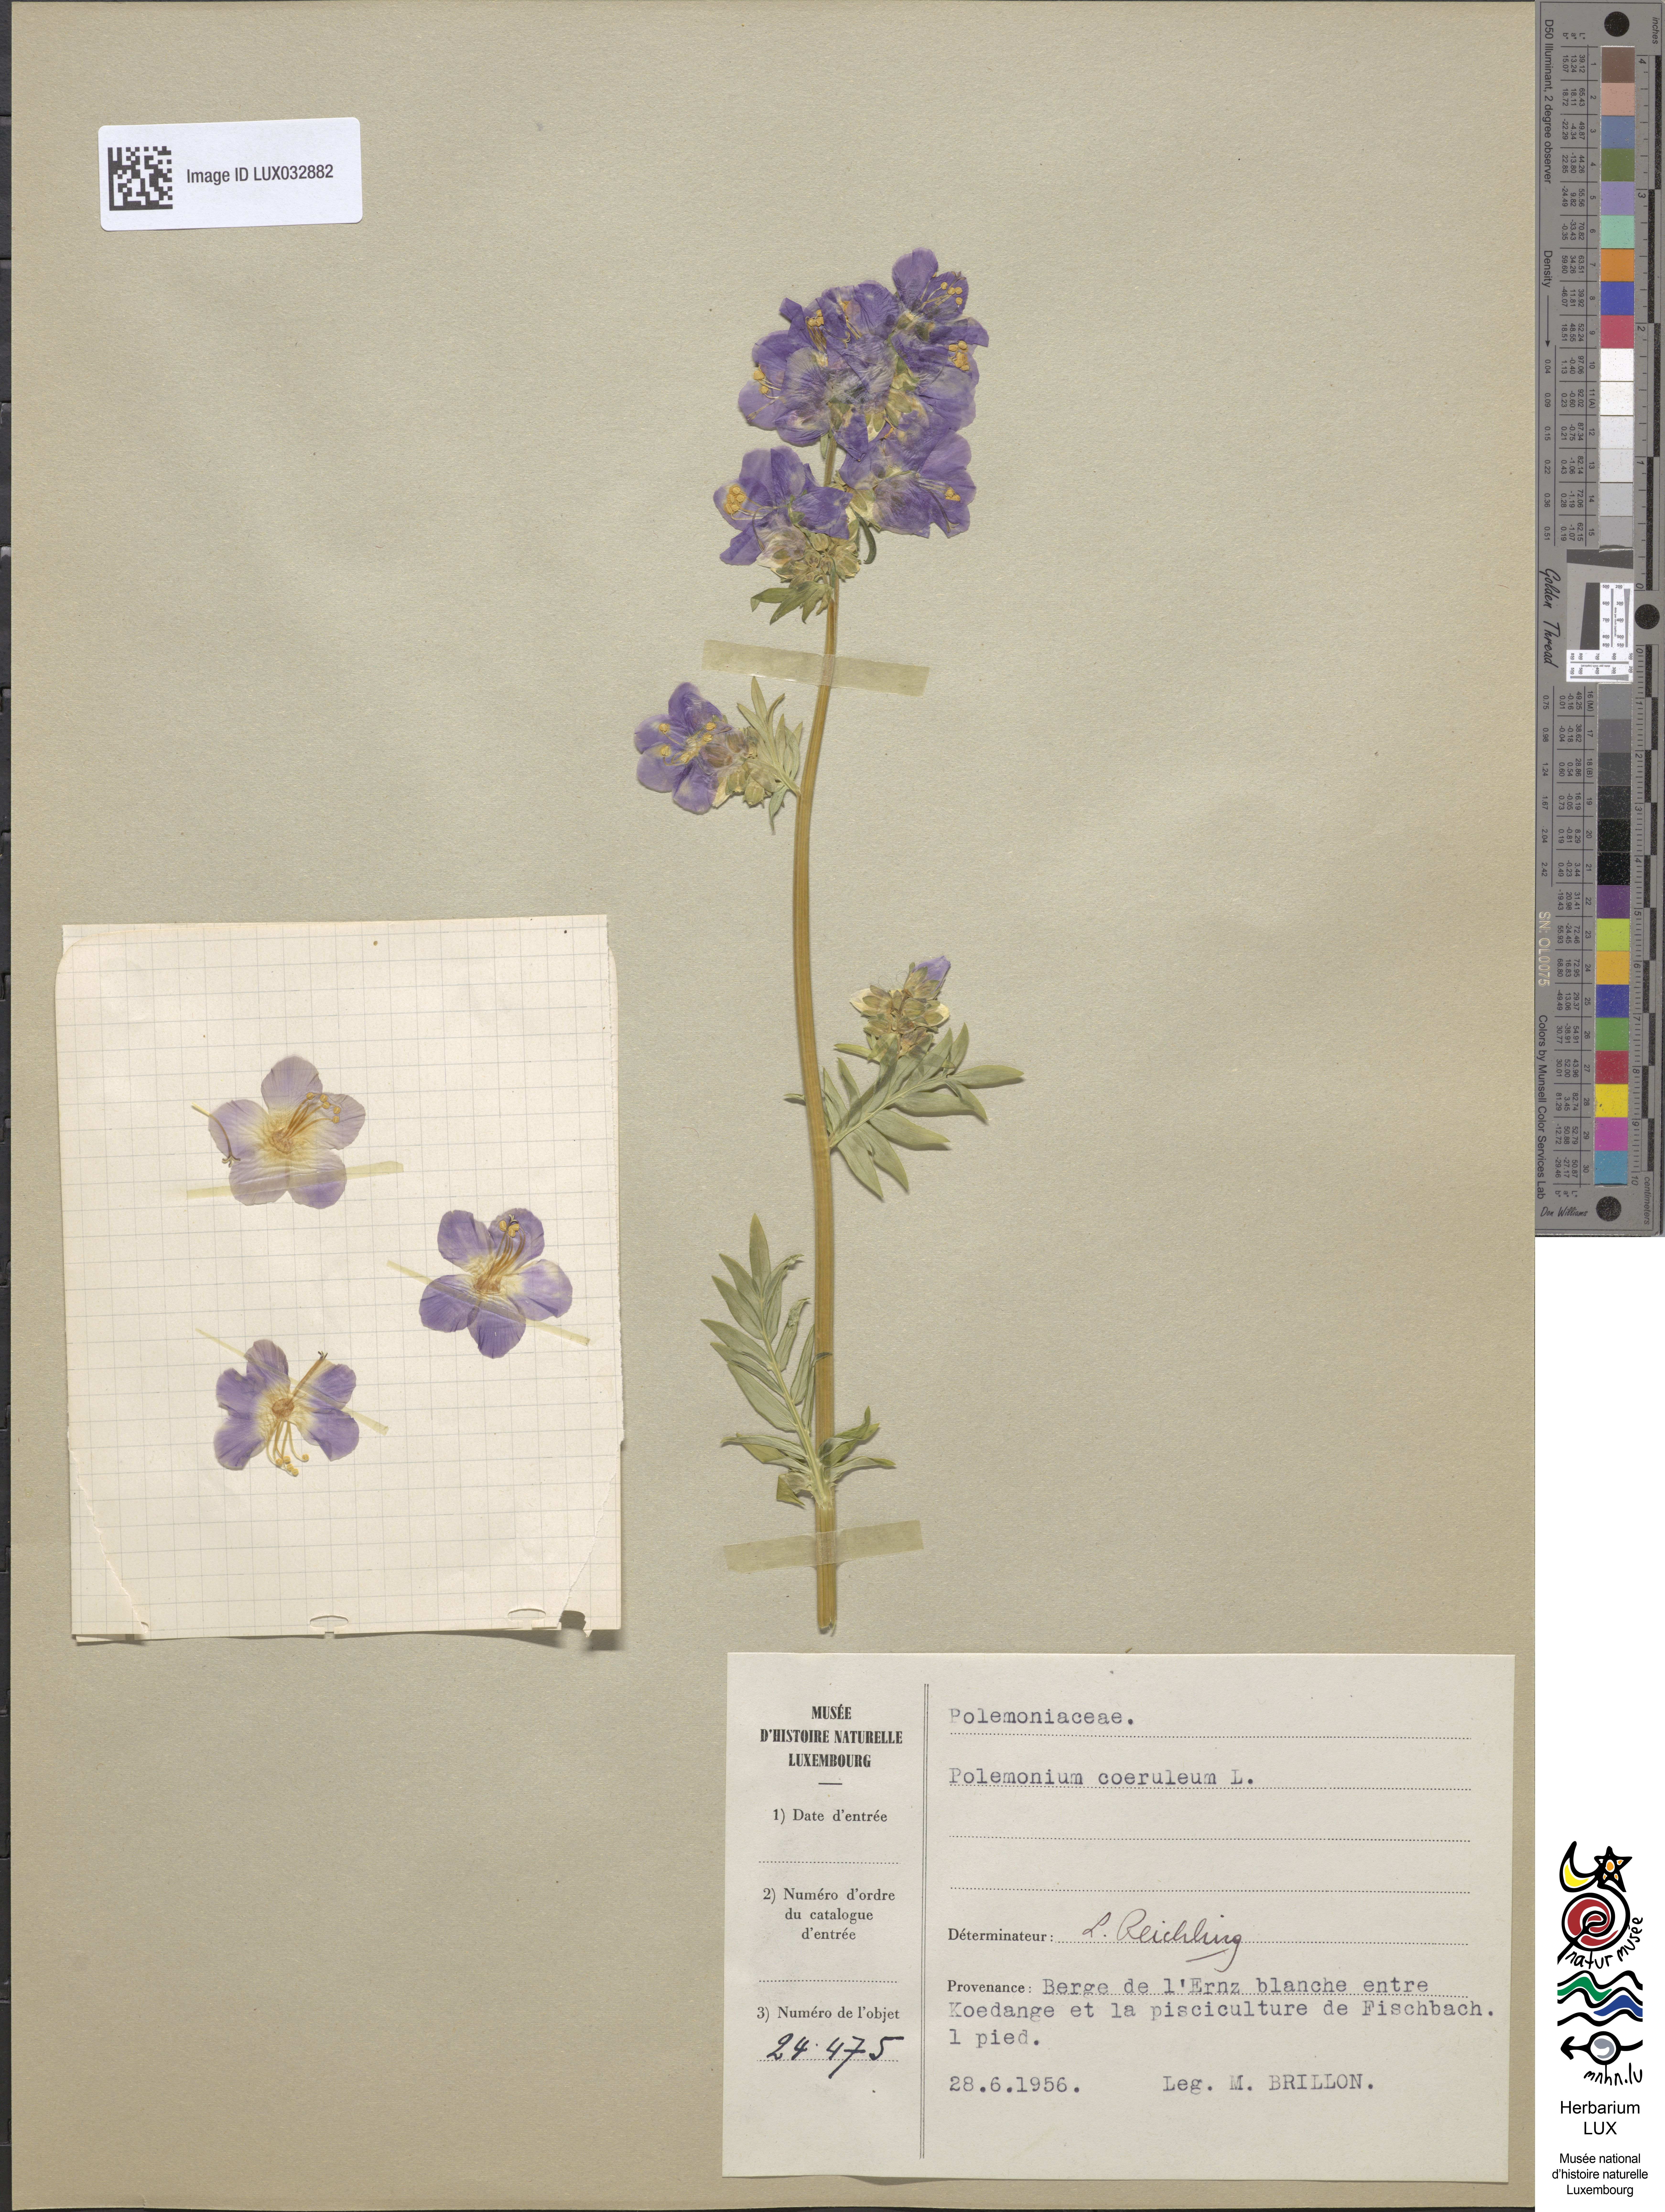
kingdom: Plantae
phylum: Tracheophyta
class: Magnoliopsida
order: Ericales
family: Polemoniaceae
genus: Polemonium
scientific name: Polemonium caeruleum
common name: Jacob's-ladder
